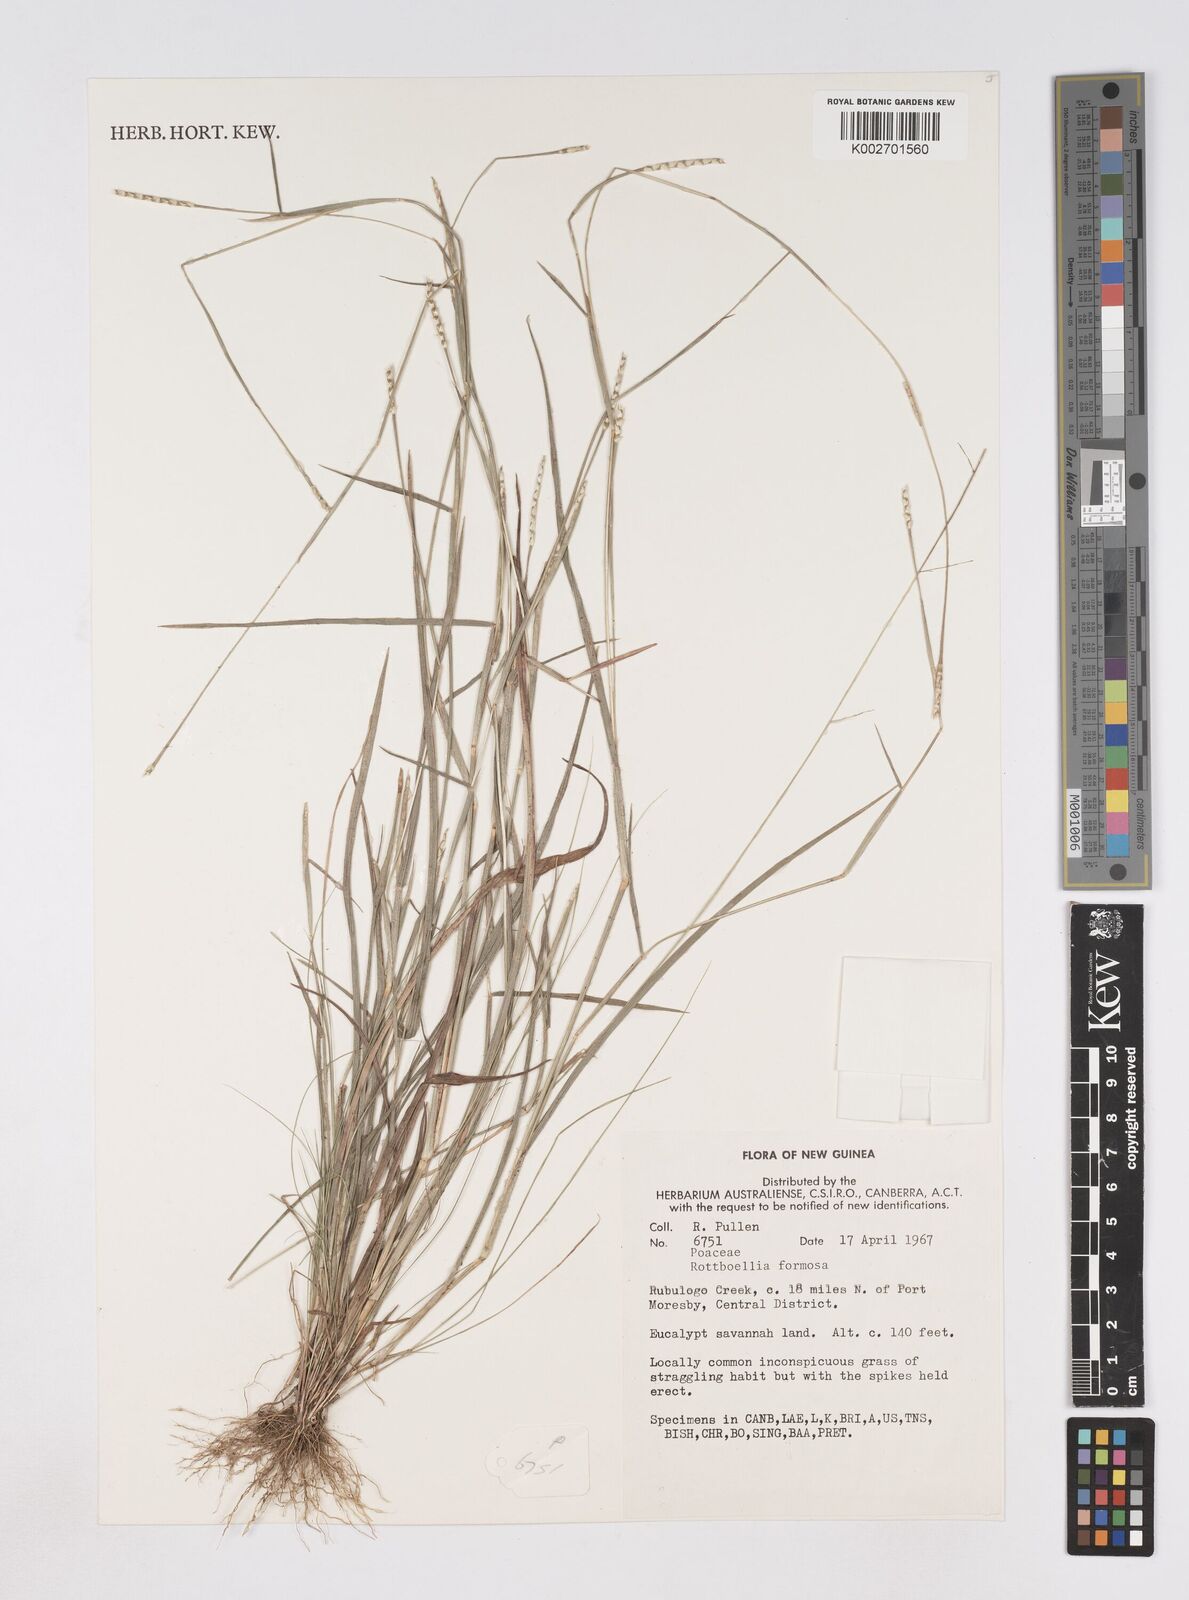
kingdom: Plantae
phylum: Tracheophyta
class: Liliopsida
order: Poales
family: Poaceae
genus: Heteropholis
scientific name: Heteropholis
